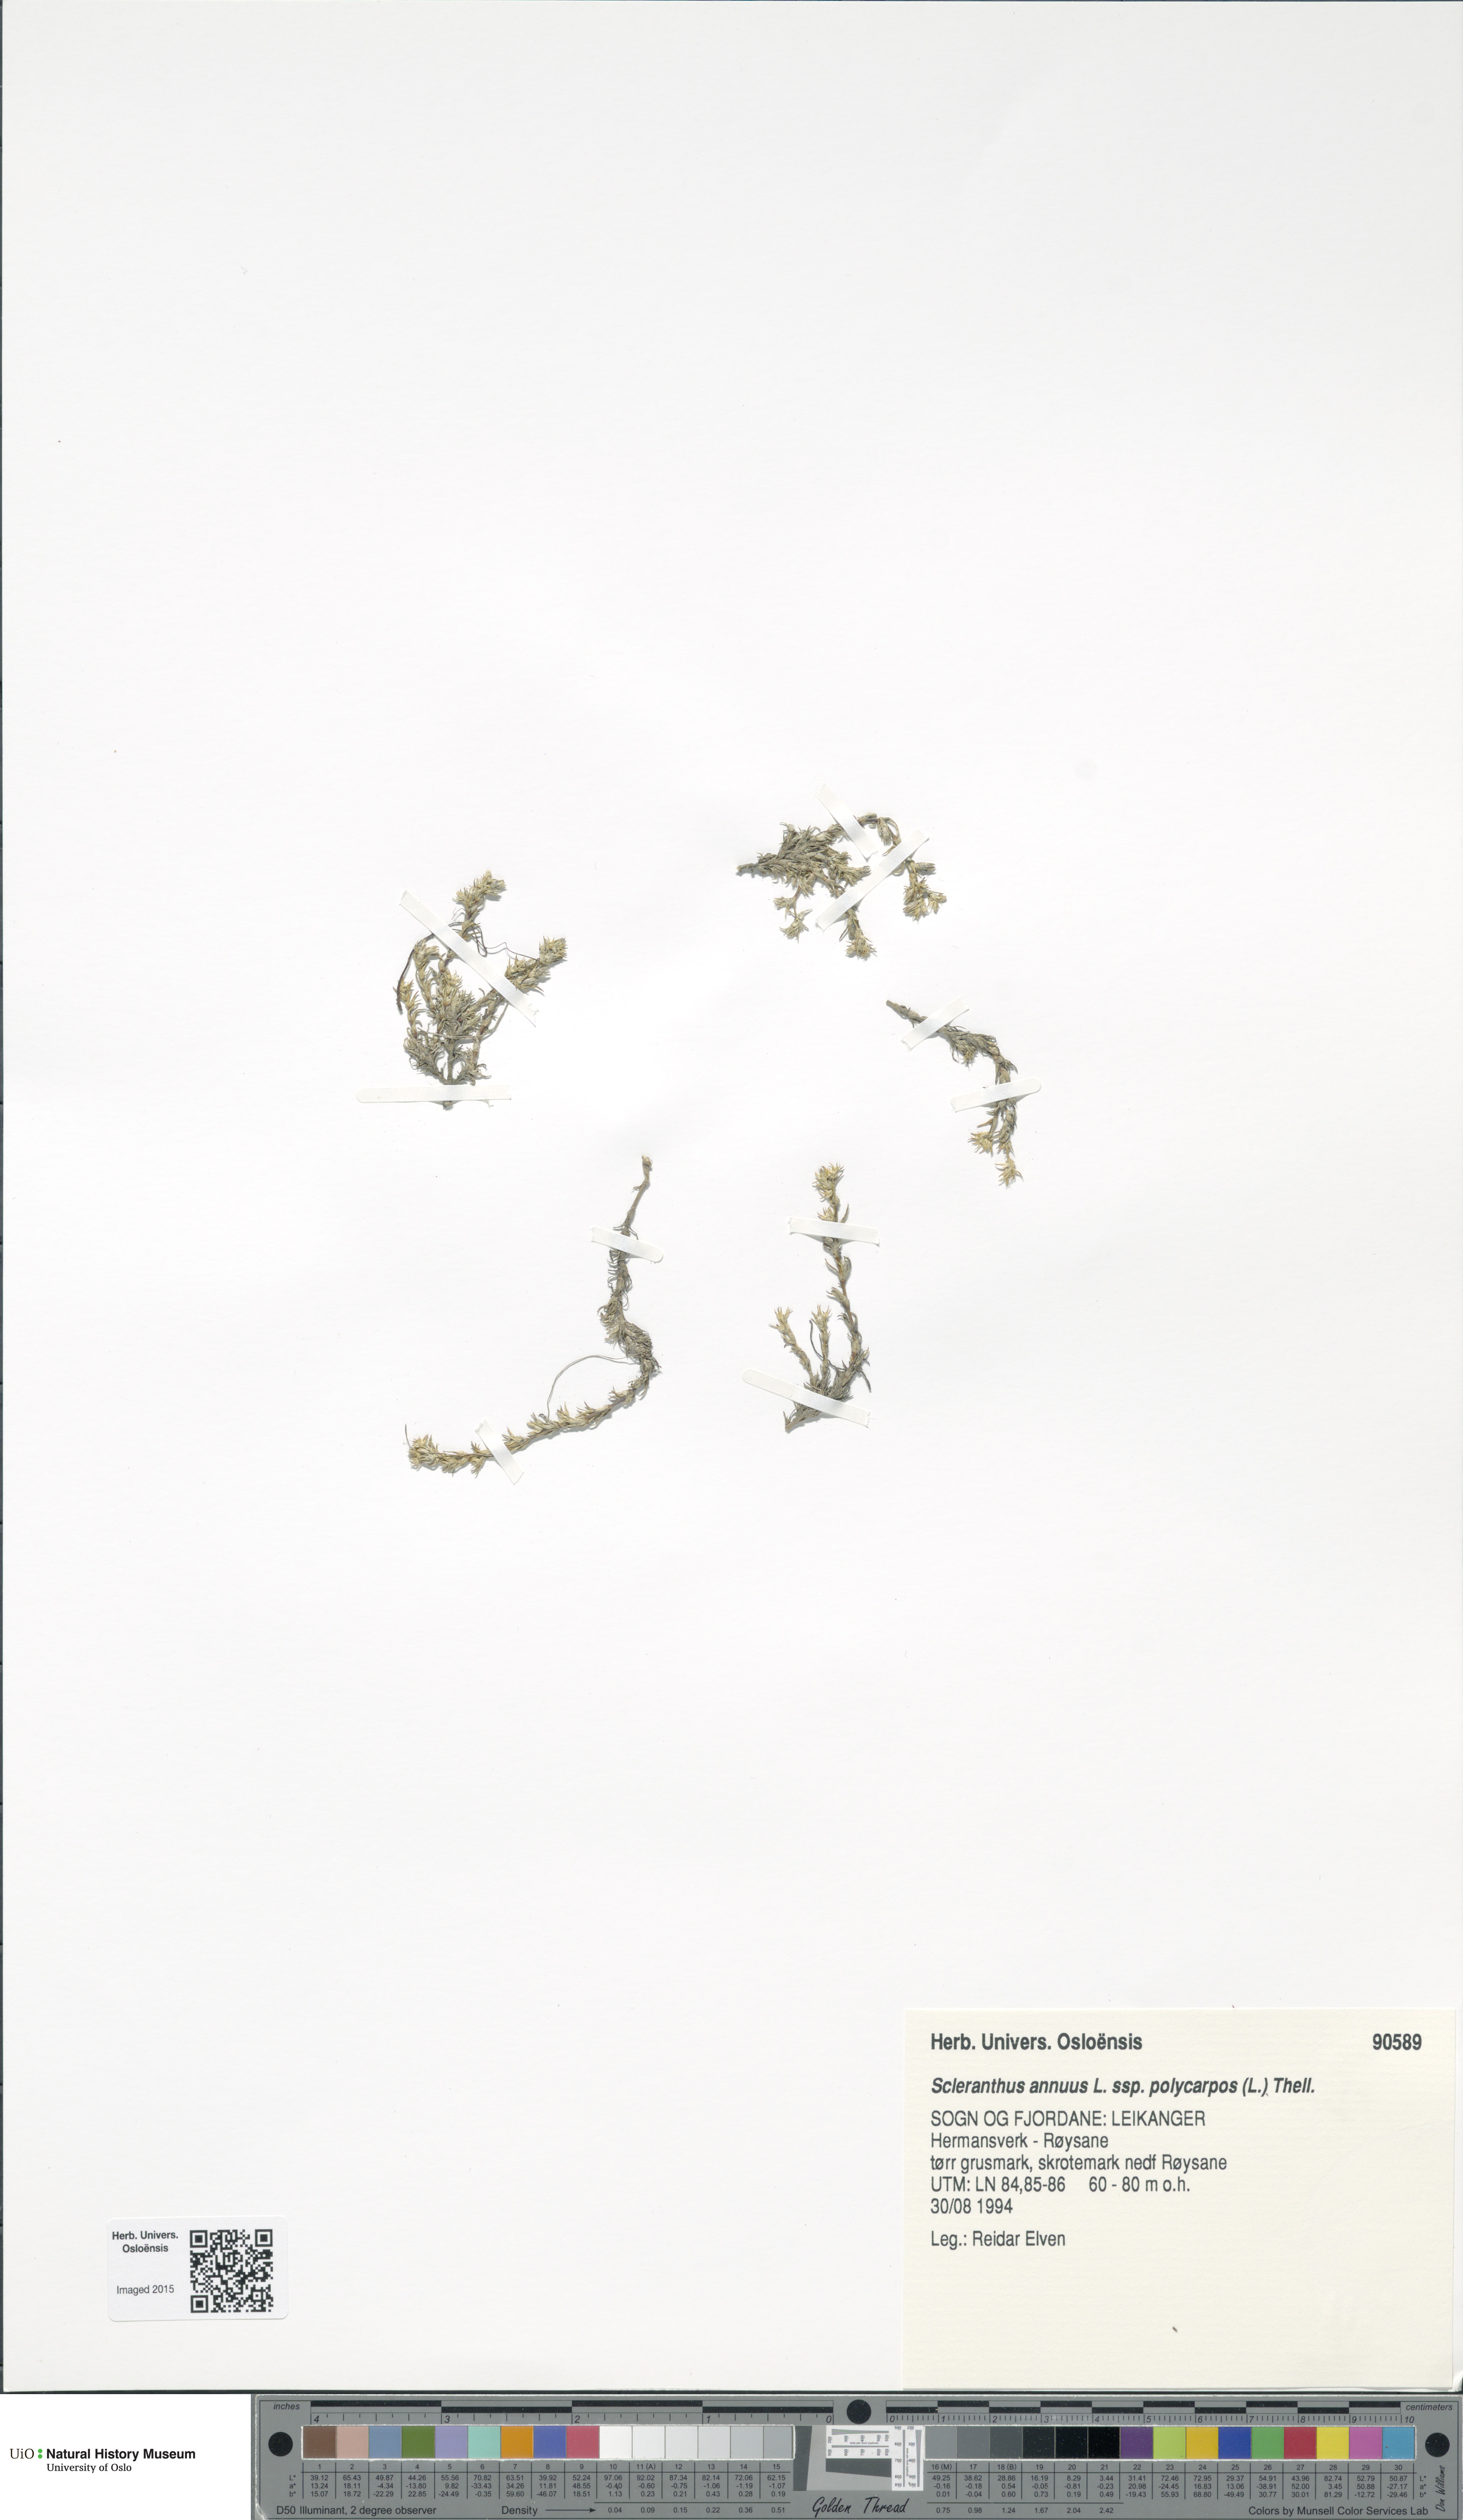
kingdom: Plantae
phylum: Tracheophyta
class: Magnoliopsida
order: Caryophyllales
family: Caryophyllaceae
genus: Scleranthus
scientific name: Scleranthus annuus
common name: Annual knawel
